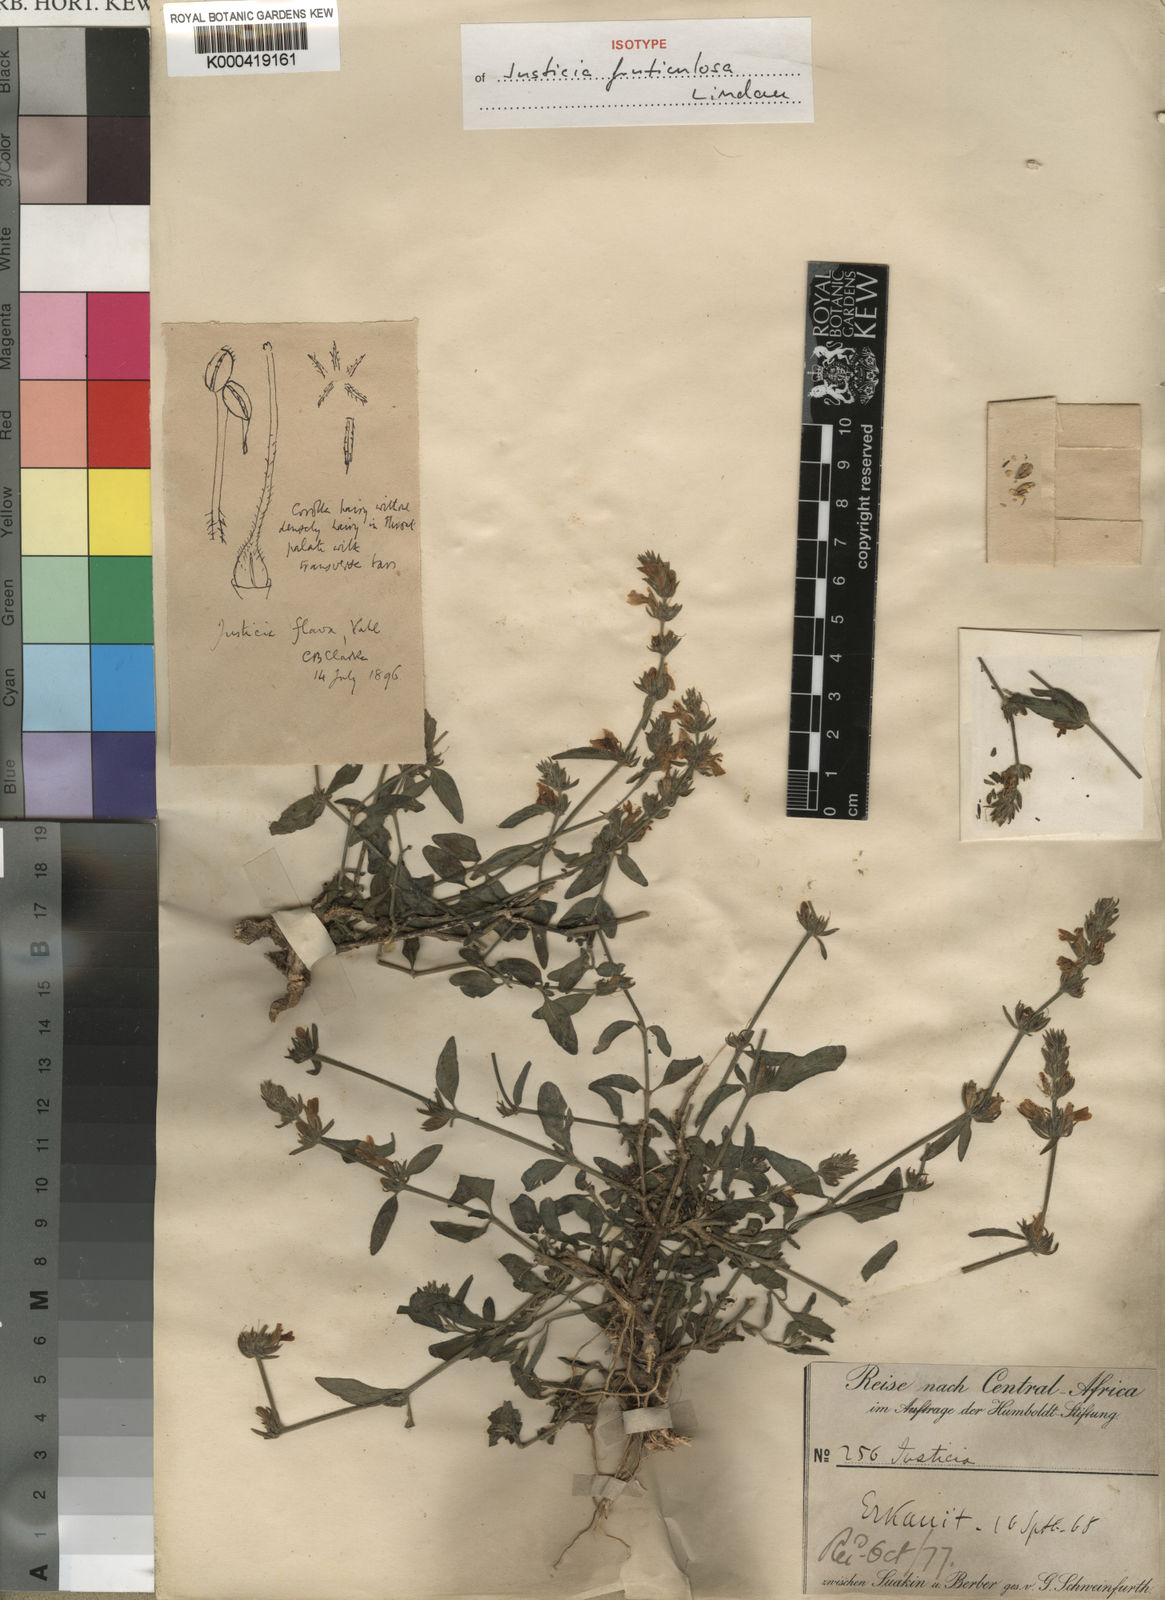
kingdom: Plantae
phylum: Tracheophyta
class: Magnoliopsida
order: Lamiales
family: Acanthaceae
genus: Justicia
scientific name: Justicia flava
